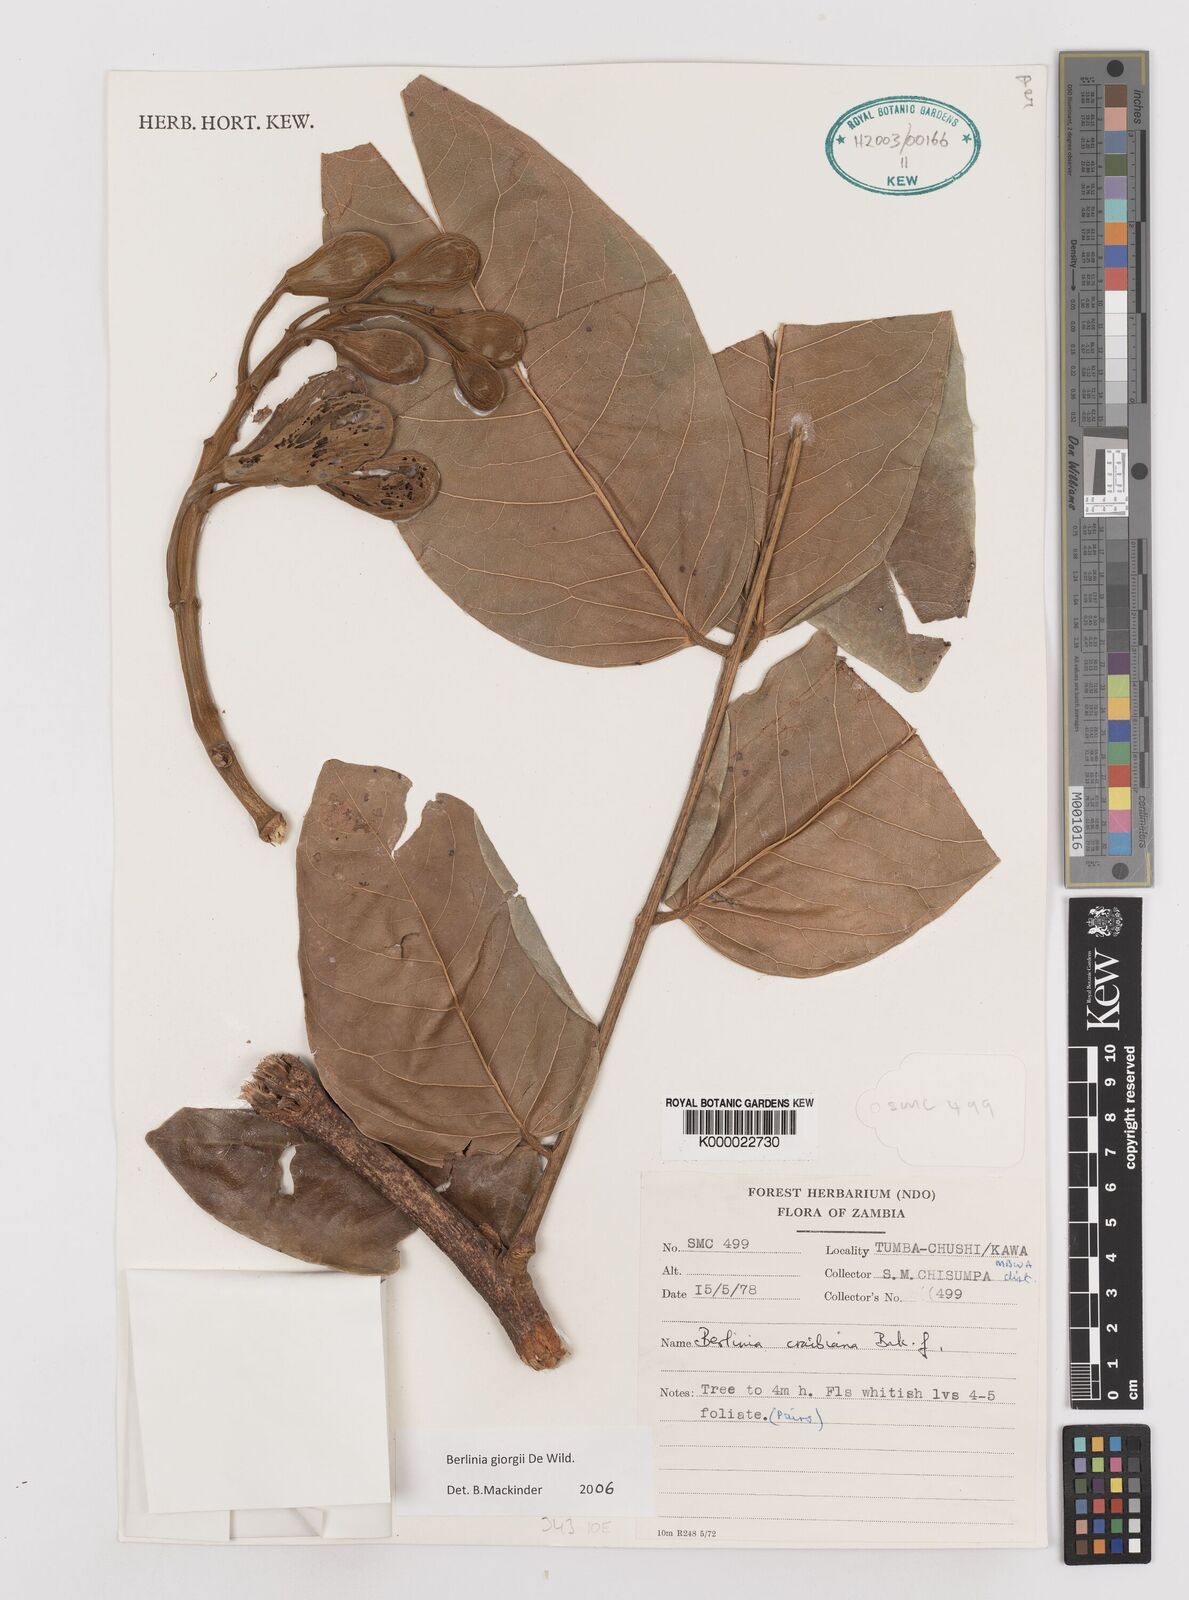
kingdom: Plantae
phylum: Tracheophyta
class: Magnoliopsida
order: Fabales
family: Fabaceae
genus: Berlinia
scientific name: Berlinia giorgii
